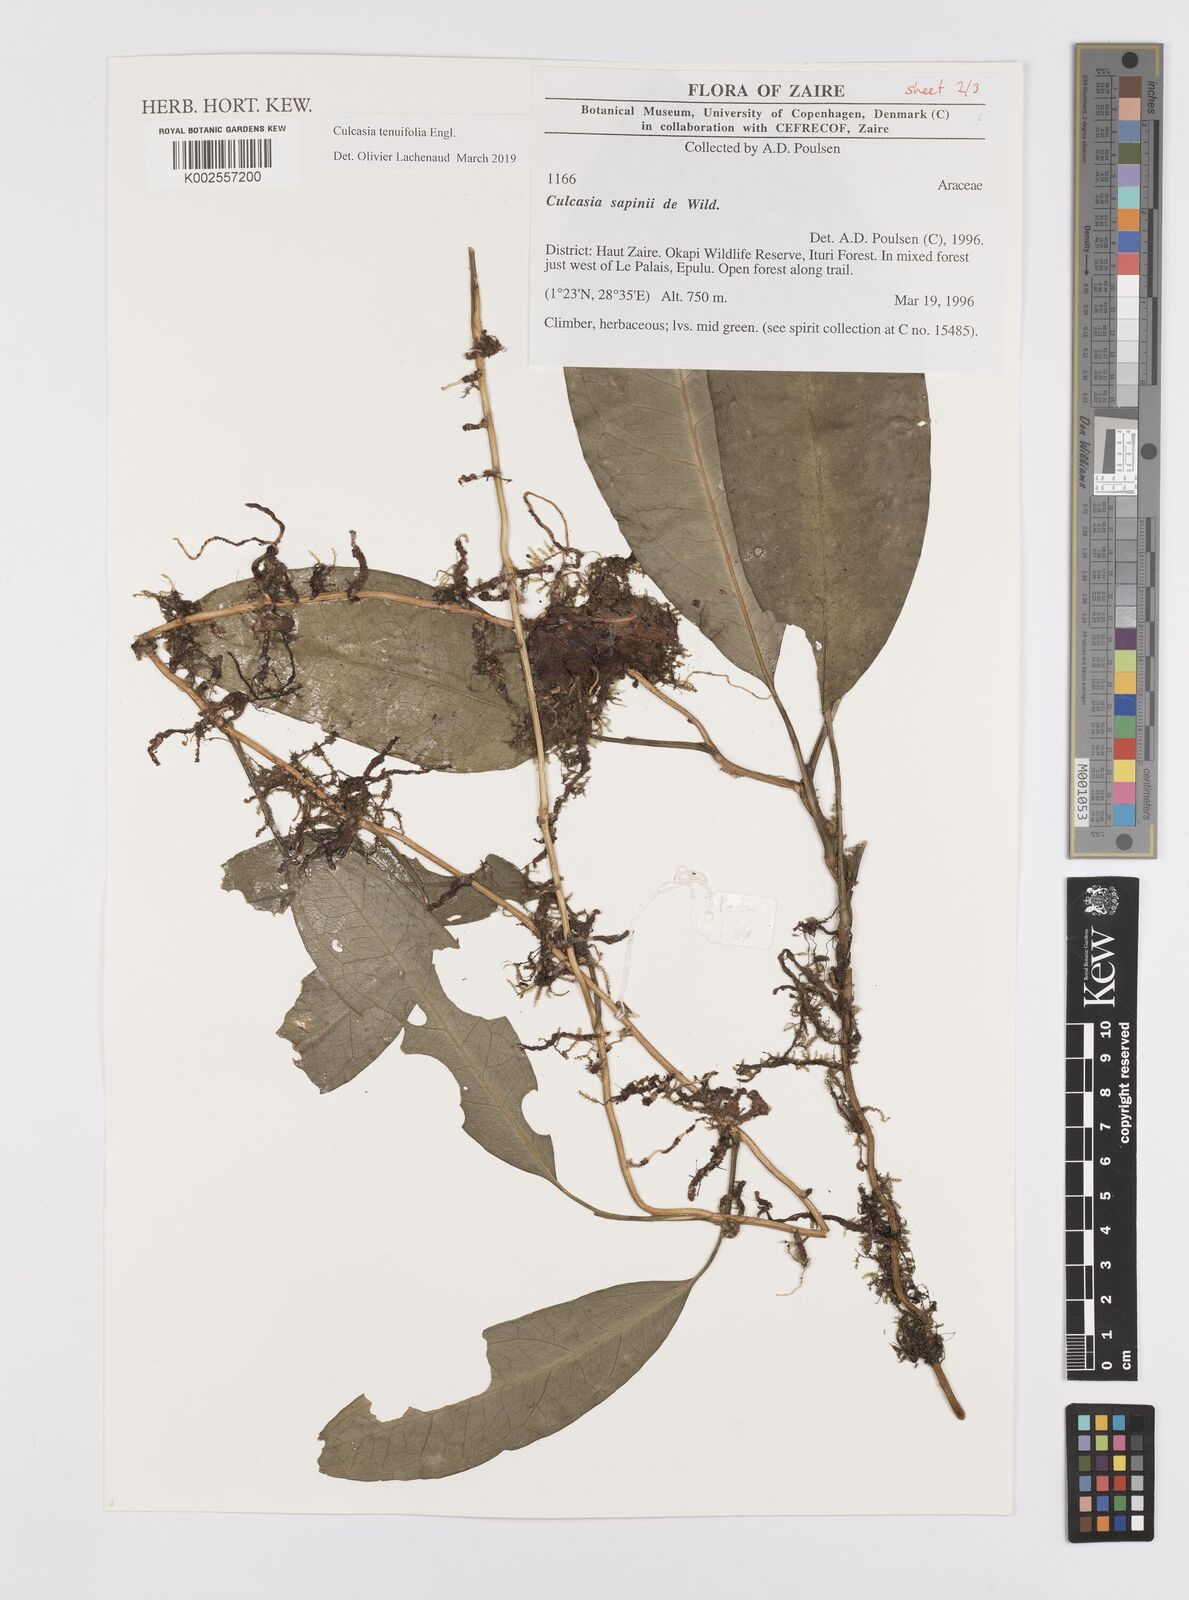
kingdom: Plantae
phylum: Tracheophyta
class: Liliopsida
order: Alismatales
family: Araceae
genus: Culcasia
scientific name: Culcasia tenuifolia
